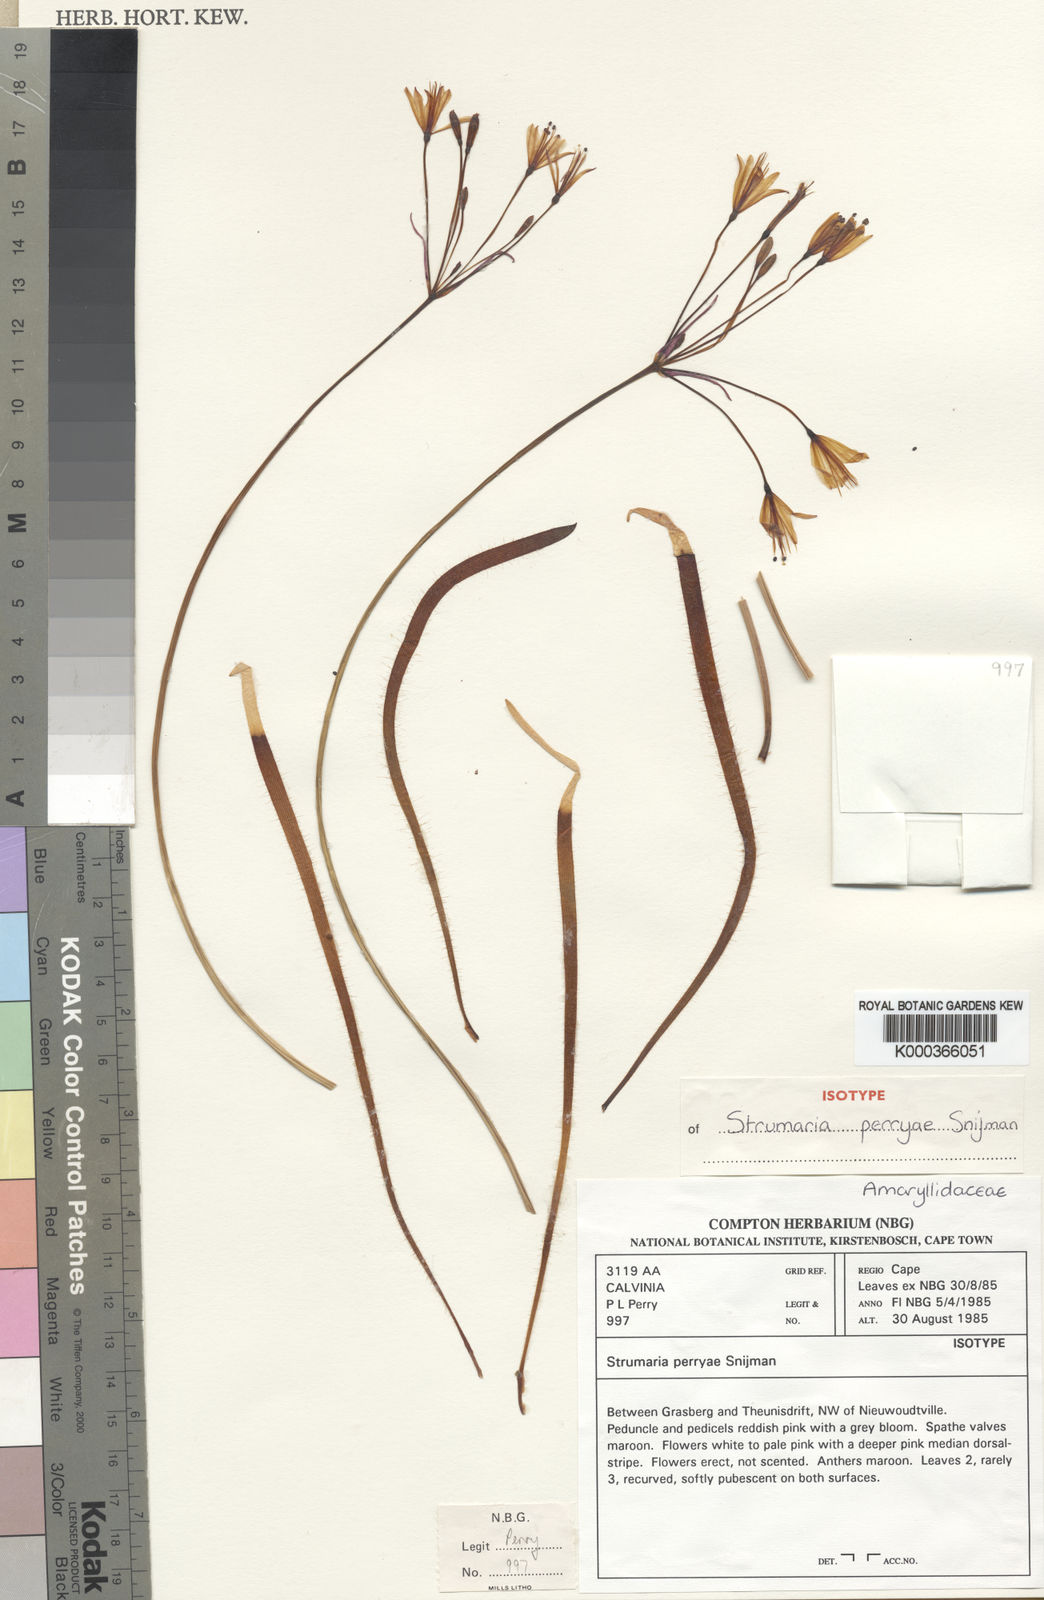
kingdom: Plantae
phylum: Tracheophyta
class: Liliopsida
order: Asparagales
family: Amaryllidaceae
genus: Strumaria
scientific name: Strumaria perryae
